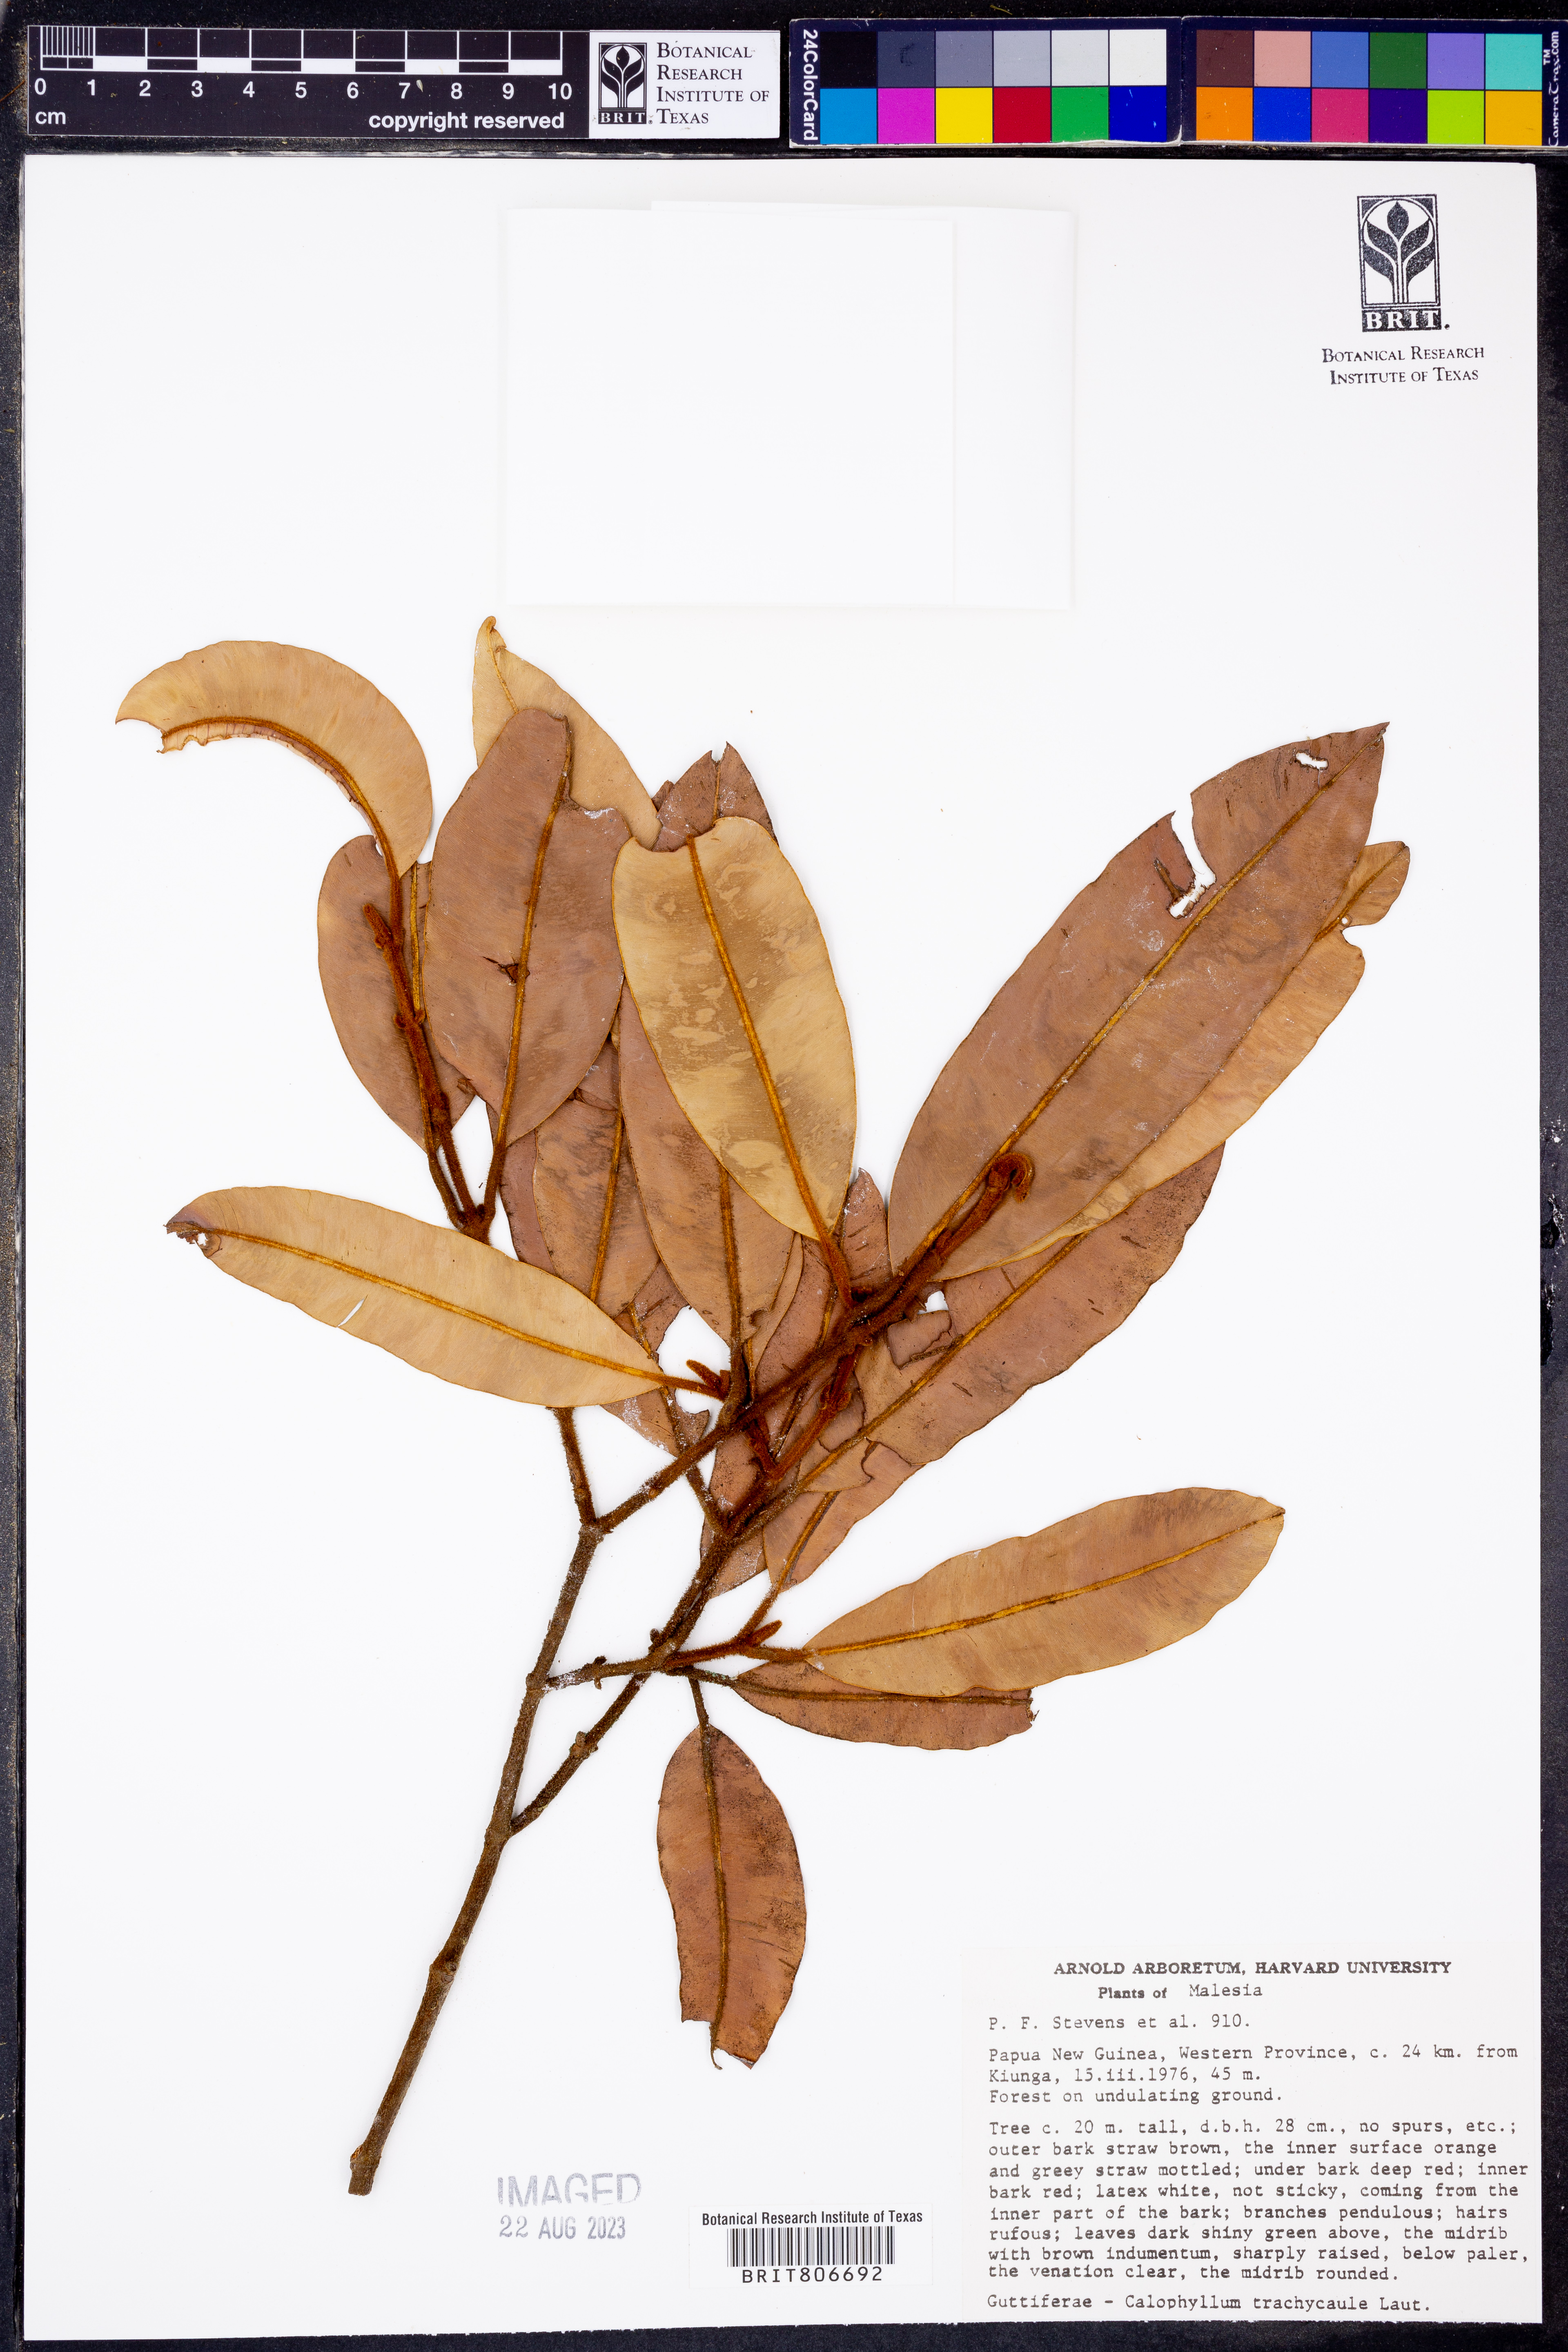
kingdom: Plantae
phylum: Tracheophyta
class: Magnoliopsida
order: Malpighiales
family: Calophyllaceae
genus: Calophyllum
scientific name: Calophyllum trachycaule
